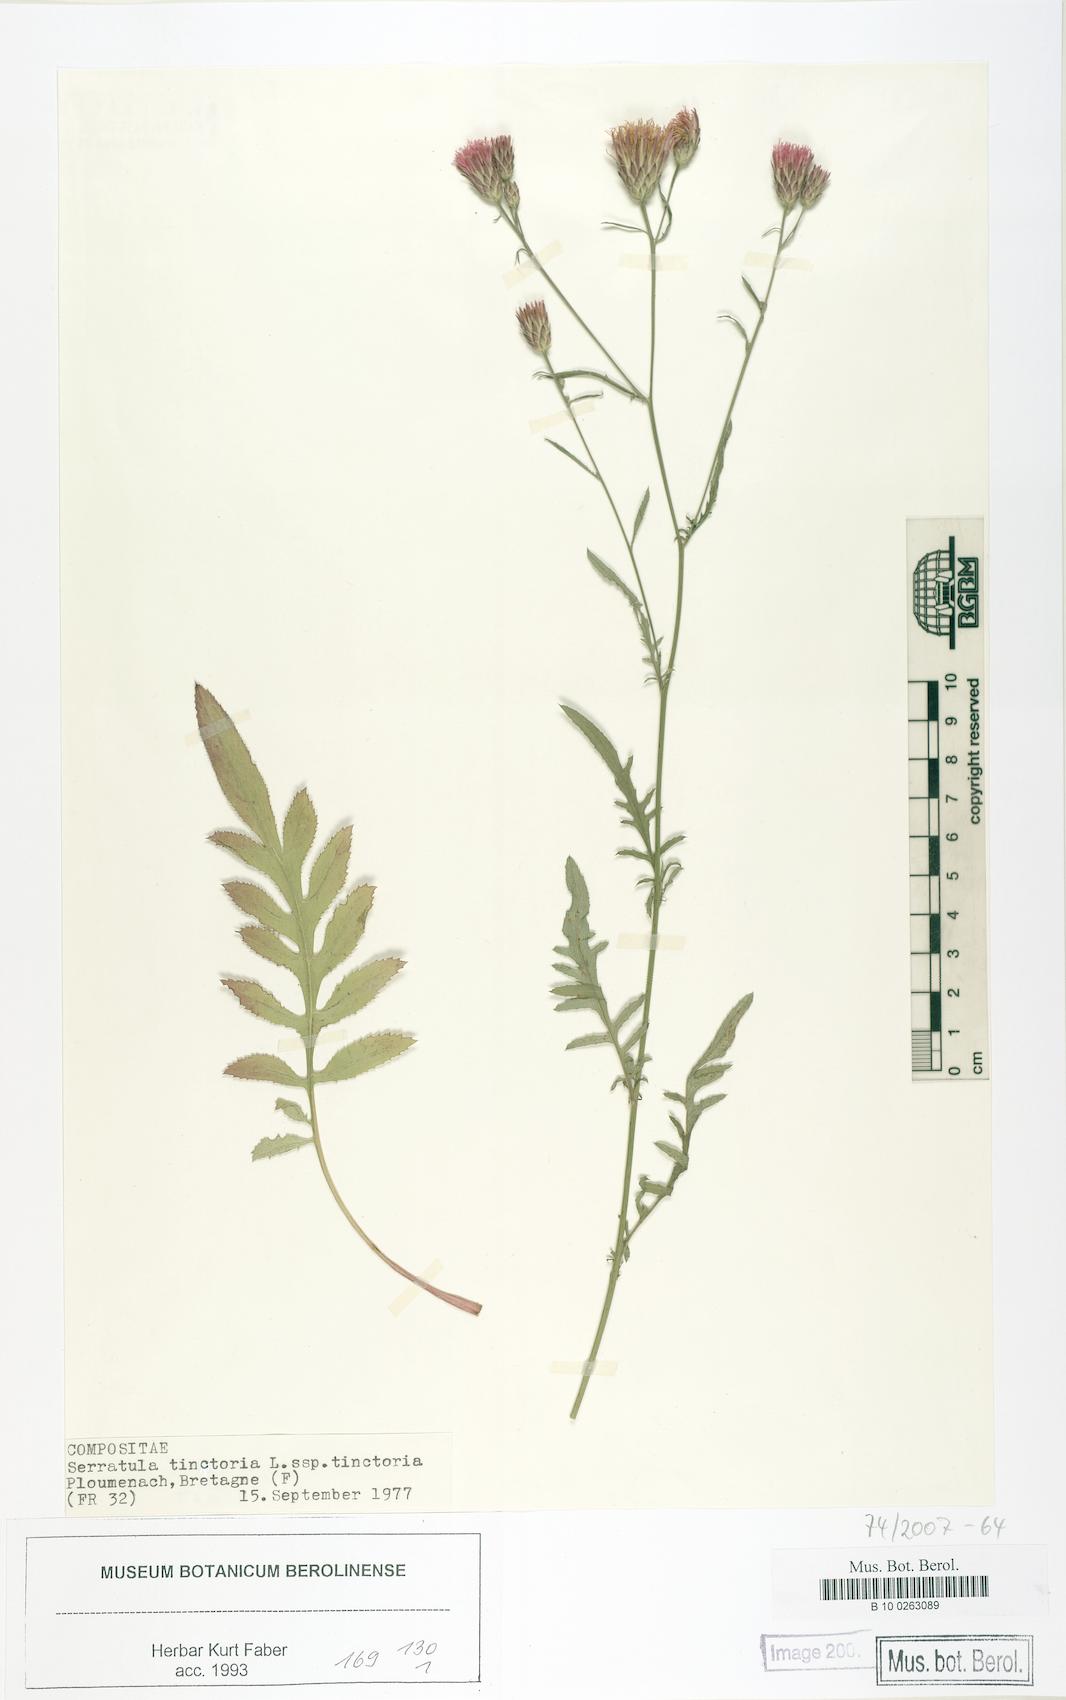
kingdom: Plantae
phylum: Tracheophyta
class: Magnoliopsida
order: Asterales
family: Asteraceae
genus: Serratula
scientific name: Serratula tinctoria
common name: Saw-wort
